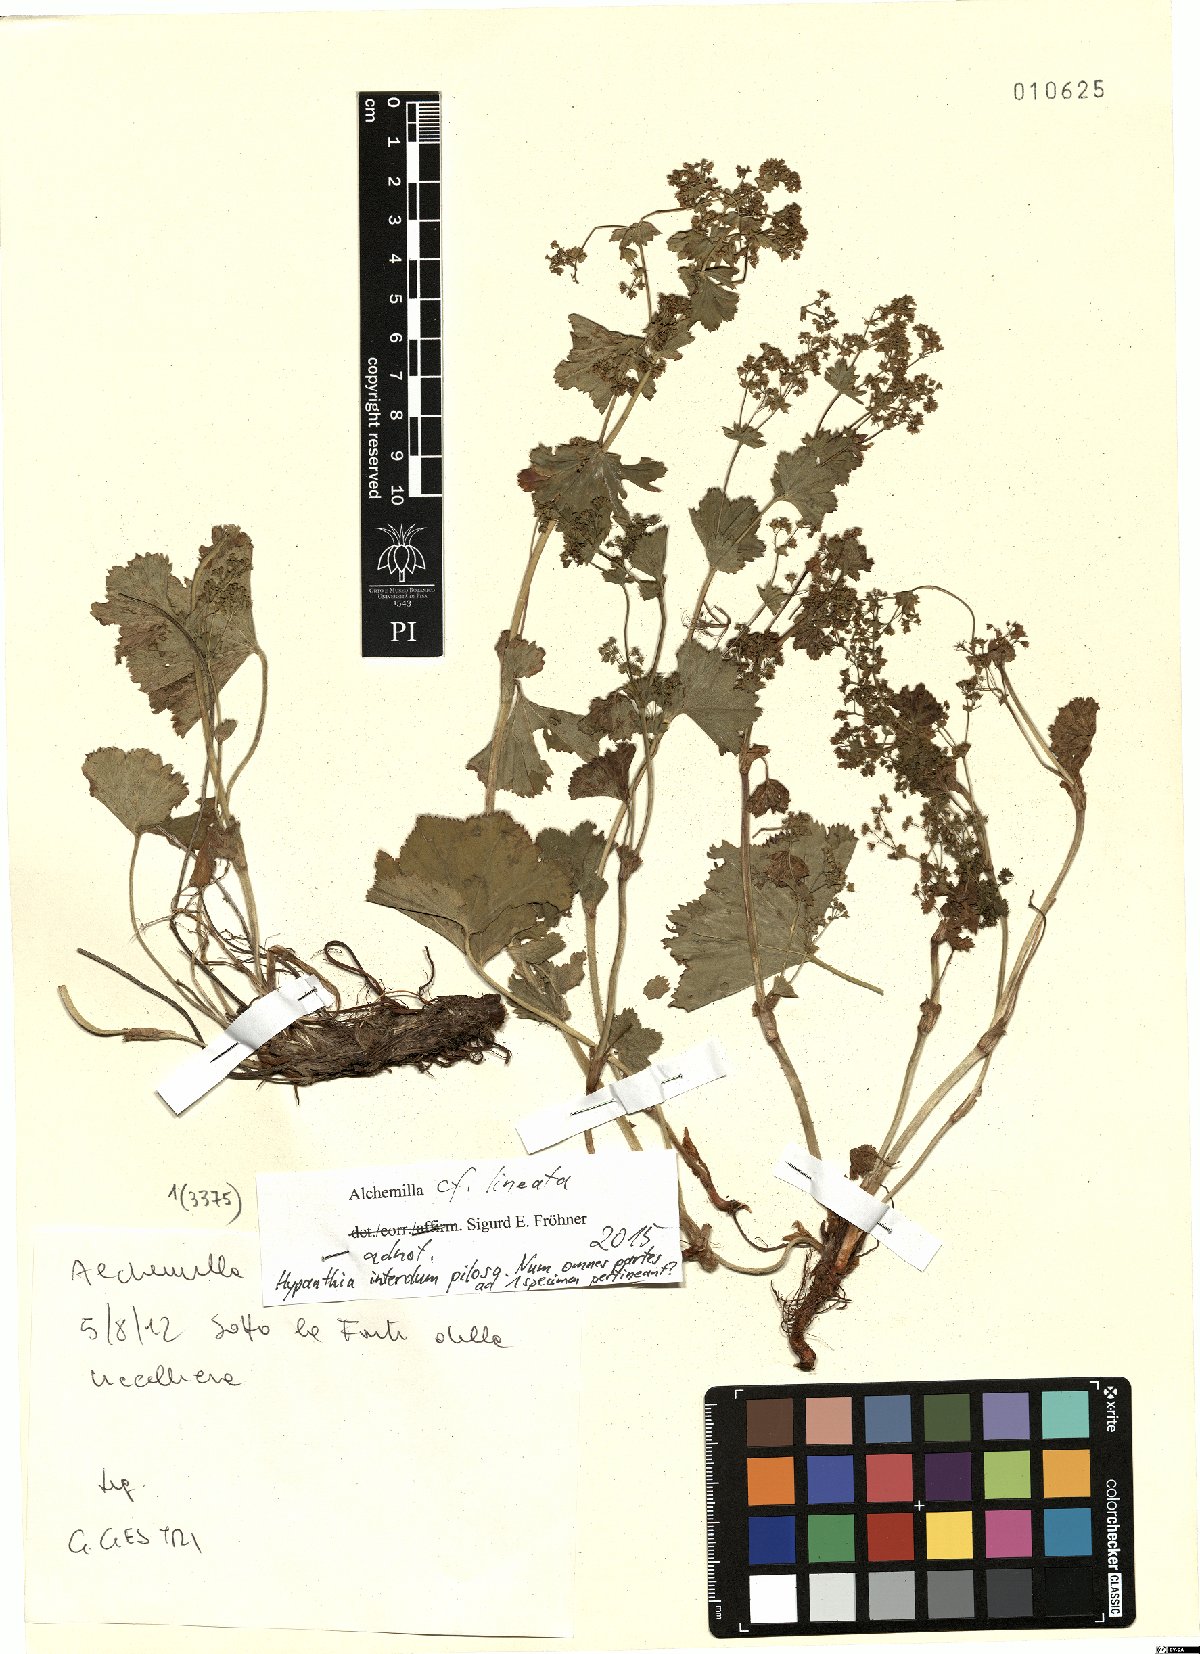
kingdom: Plantae
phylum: Tracheophyta
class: Magnoliopsida
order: Rosales
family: Rosaceae
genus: Alchemilla
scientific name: Alchemilla lineata
